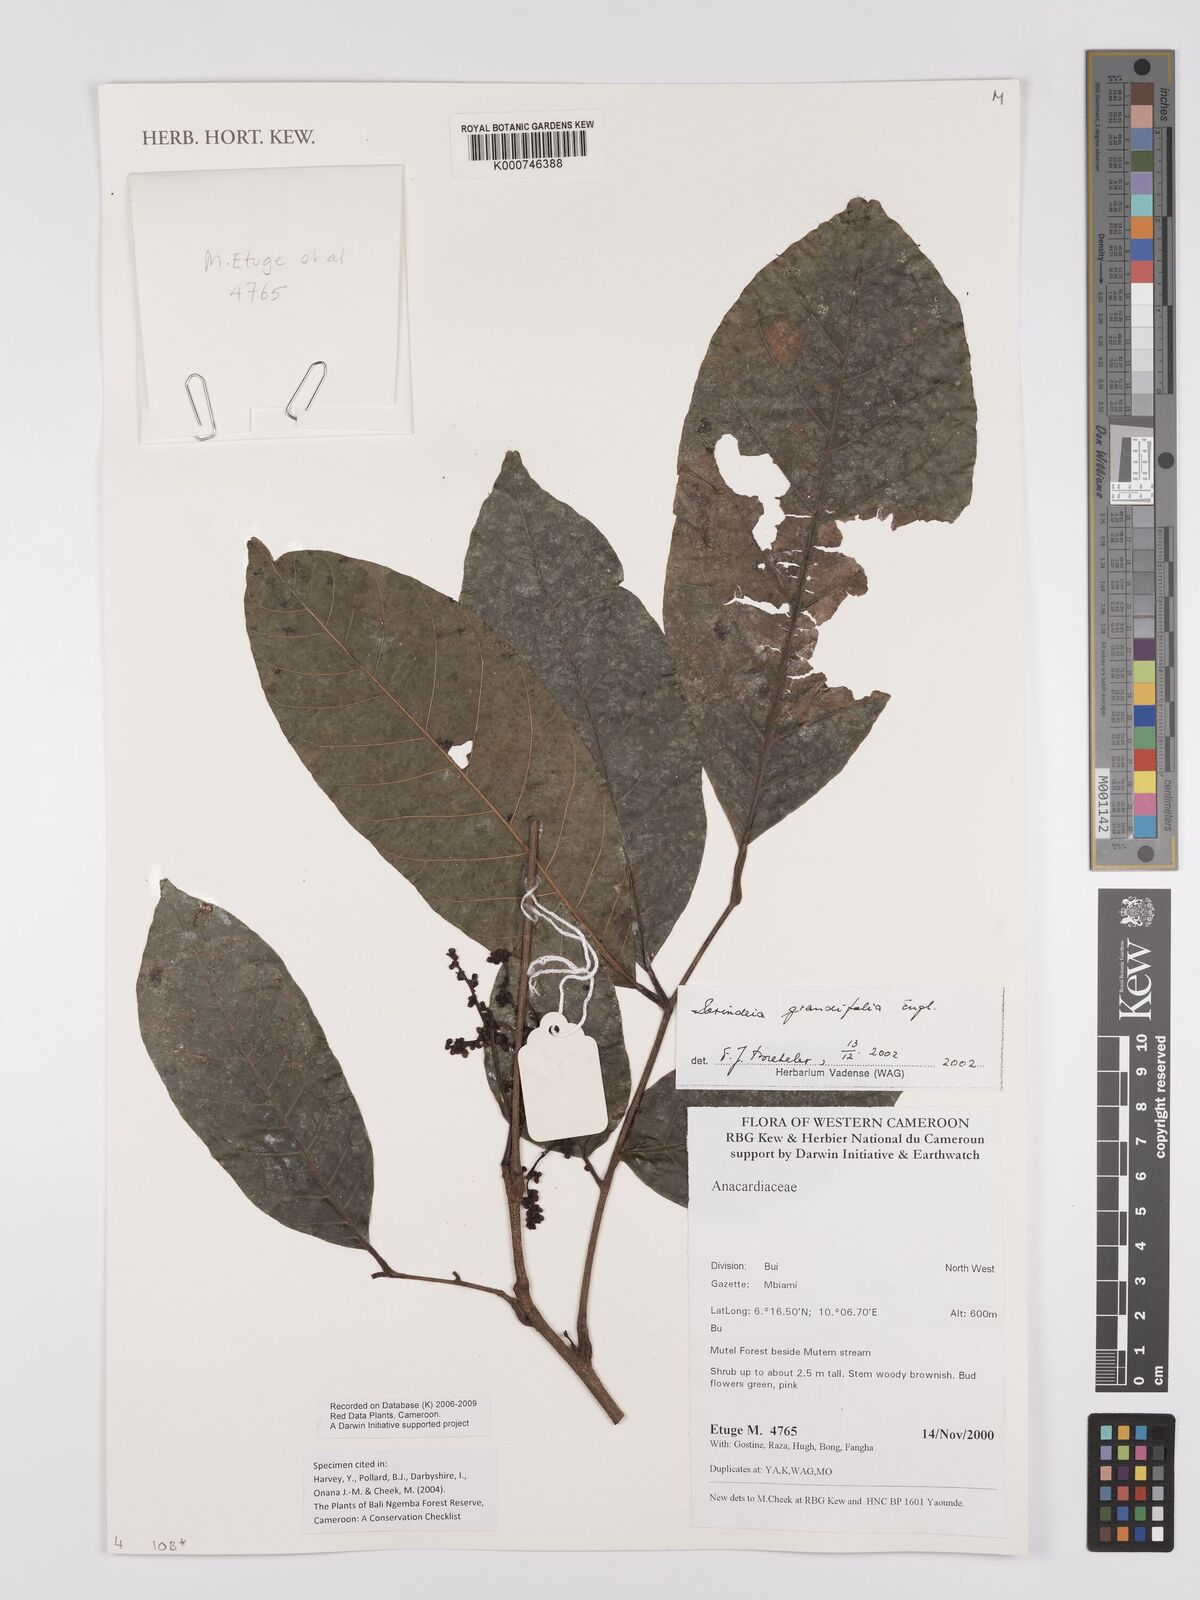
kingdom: Plantae
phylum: Tracheophyta
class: Magnoliopsida
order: Sapindales
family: Anacardiaceae
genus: Sorindeia
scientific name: Sorindeia grandifolia
